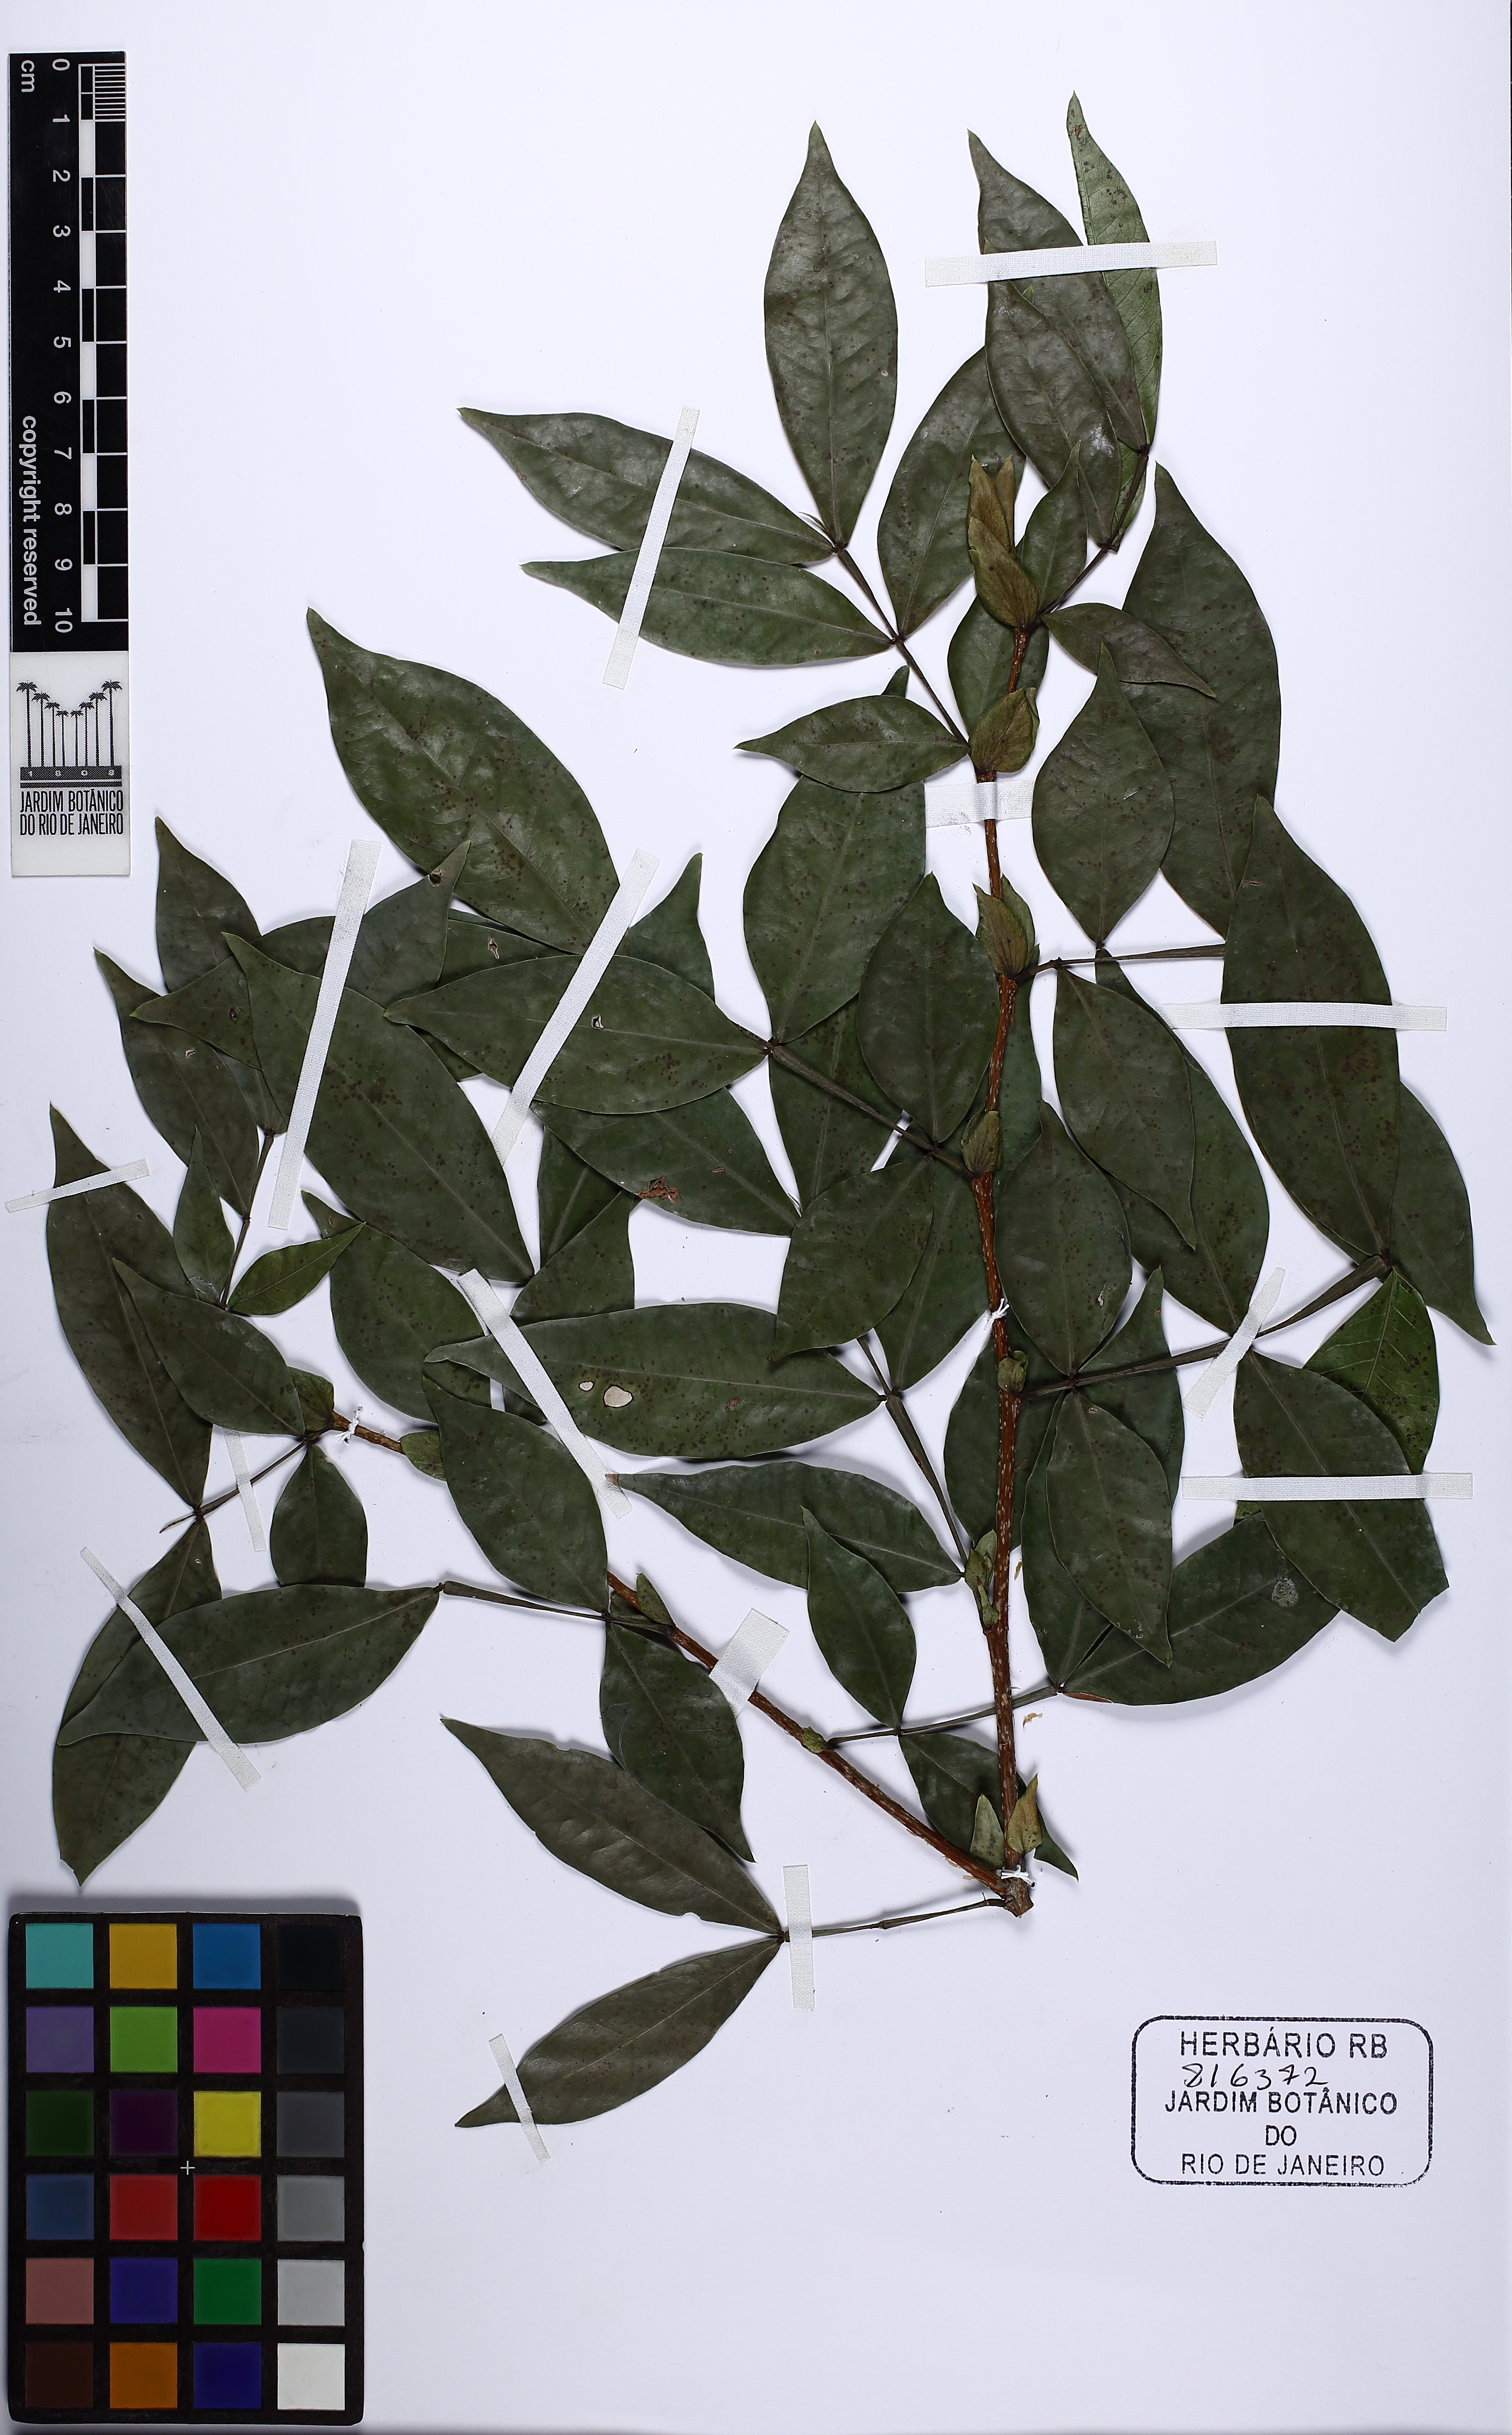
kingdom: Plantae
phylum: Tracheophyta
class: Magnoliopsida
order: Fabales
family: Fabaceae
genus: Inga
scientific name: Inga cordistipula
